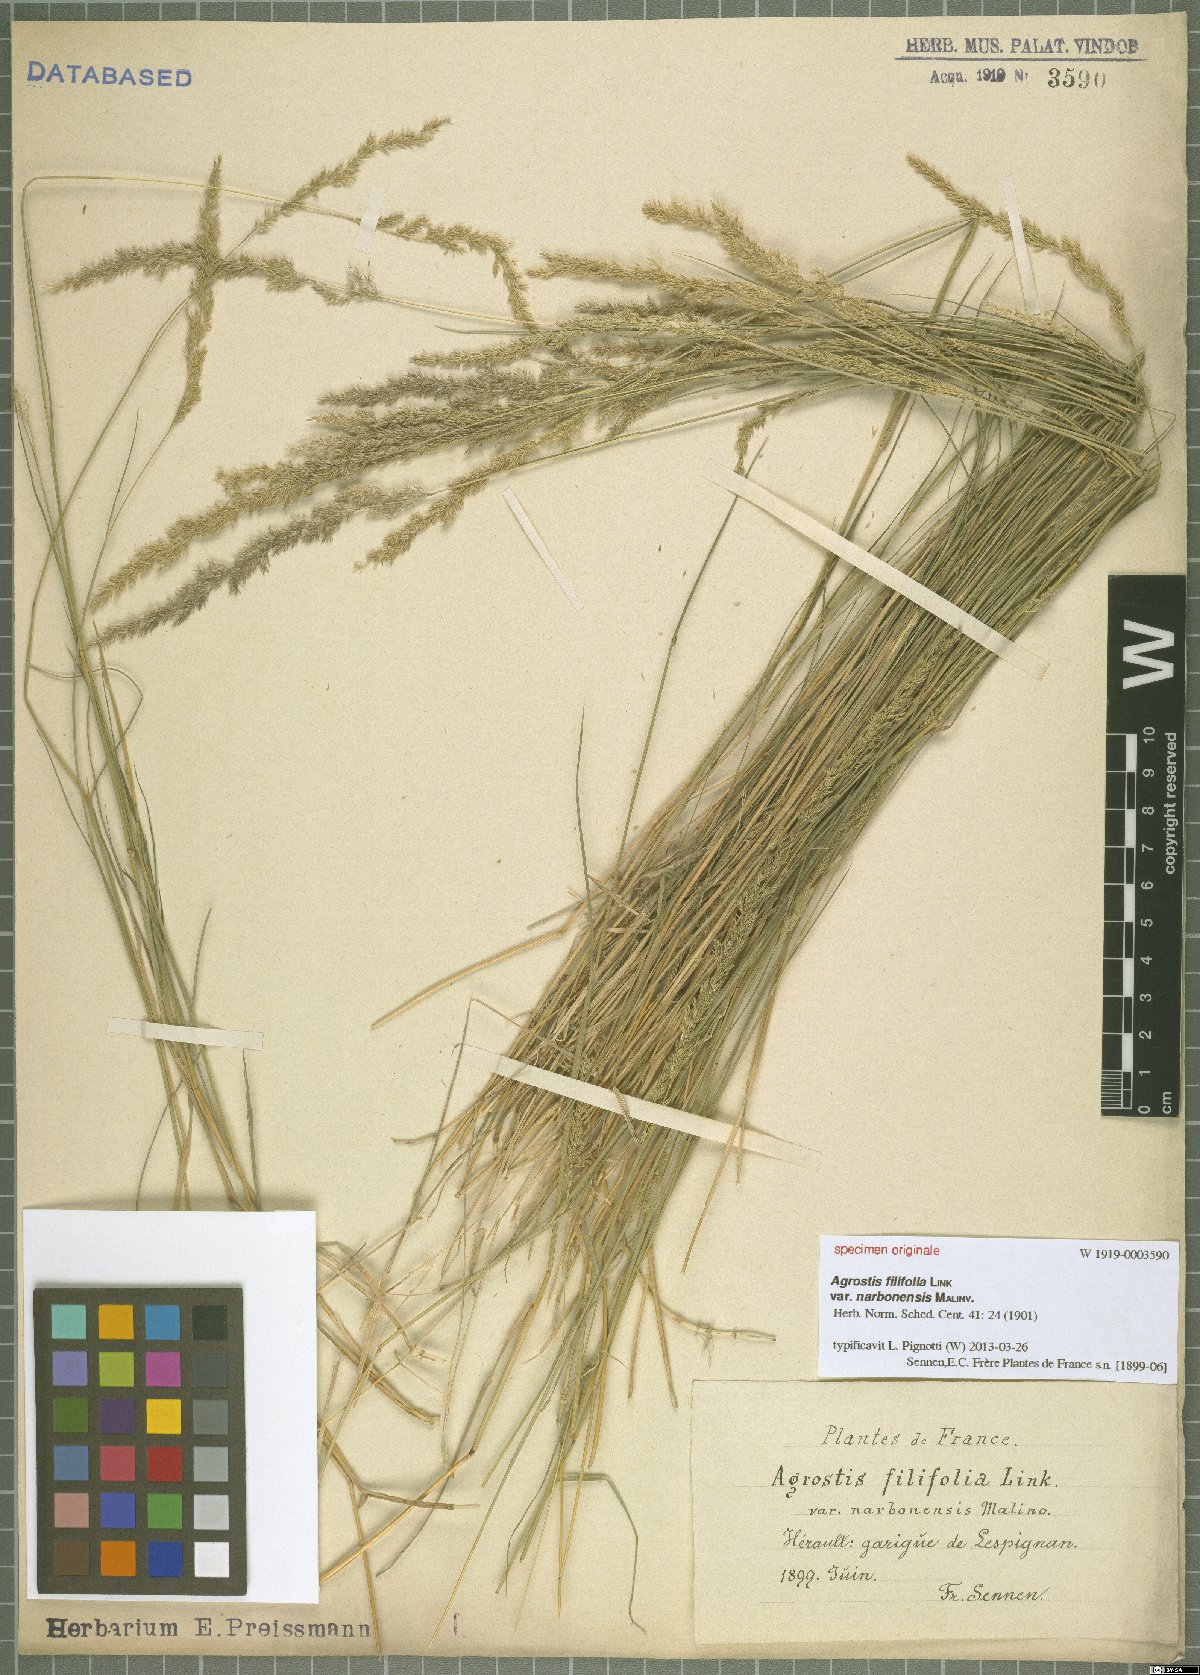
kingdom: Plantae
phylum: Tracheophyta
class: Liliopsida
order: Poales
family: Poaceae
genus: Agrostis
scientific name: Agrostis stolonifera
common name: Creeping bentgrass
